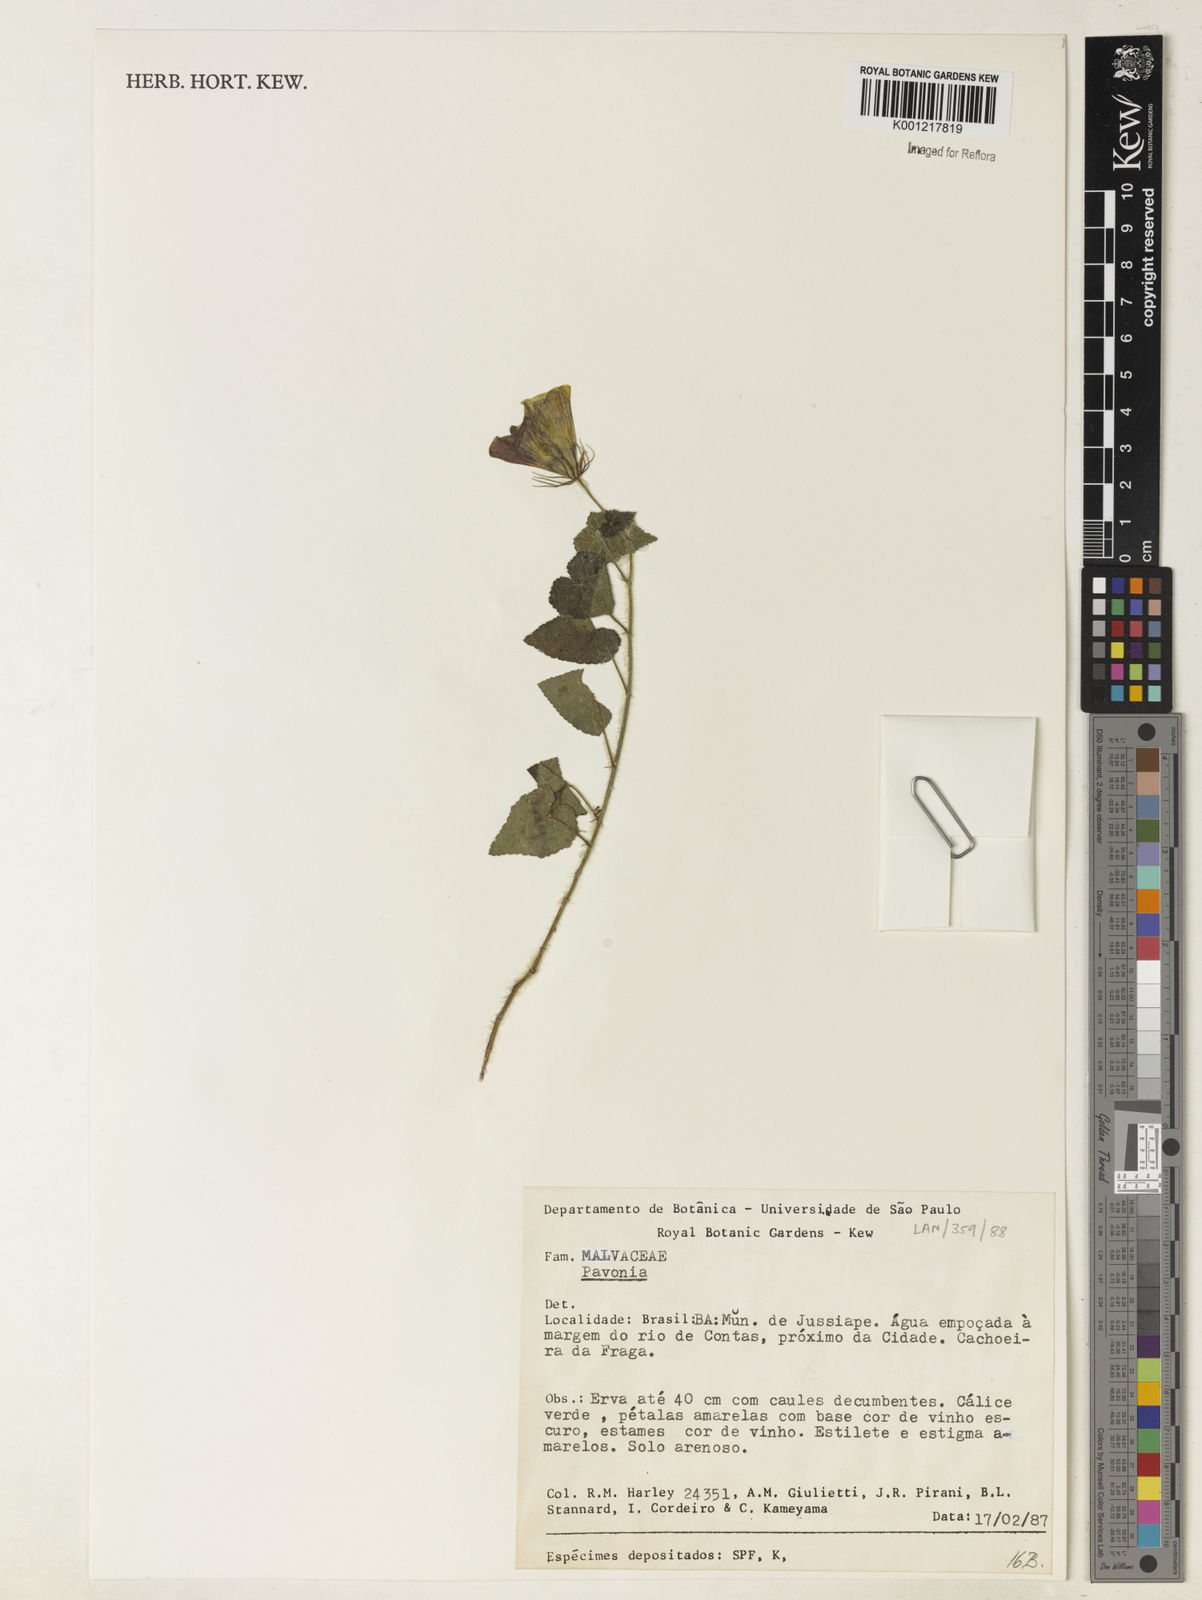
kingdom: Plantae
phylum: Tracheophyta
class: Magnoliopsida
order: Malvales
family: Malvaceae
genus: Pavonia
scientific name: Pavonia
